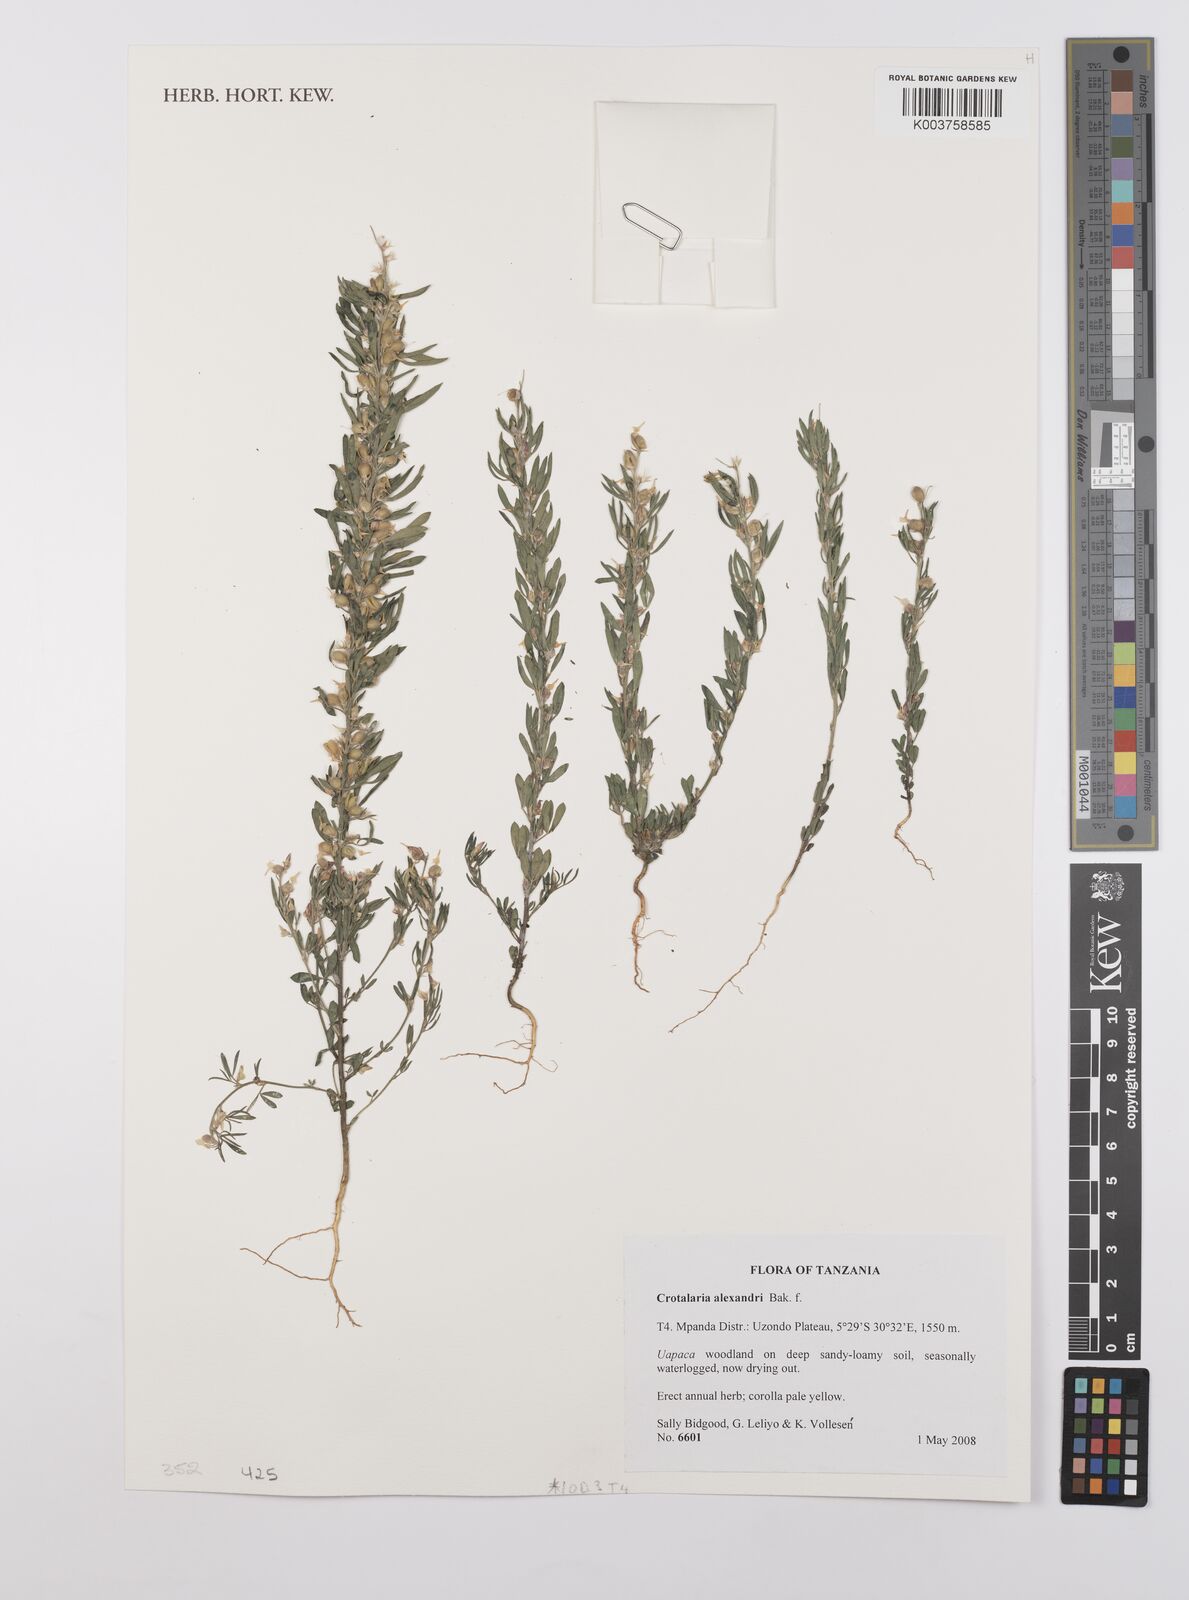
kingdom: Plantae
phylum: Tracheophyta
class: Magnoliopsida
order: Fabales
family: Fabaceae
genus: Crotalaria
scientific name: Crotalaria alexandri
